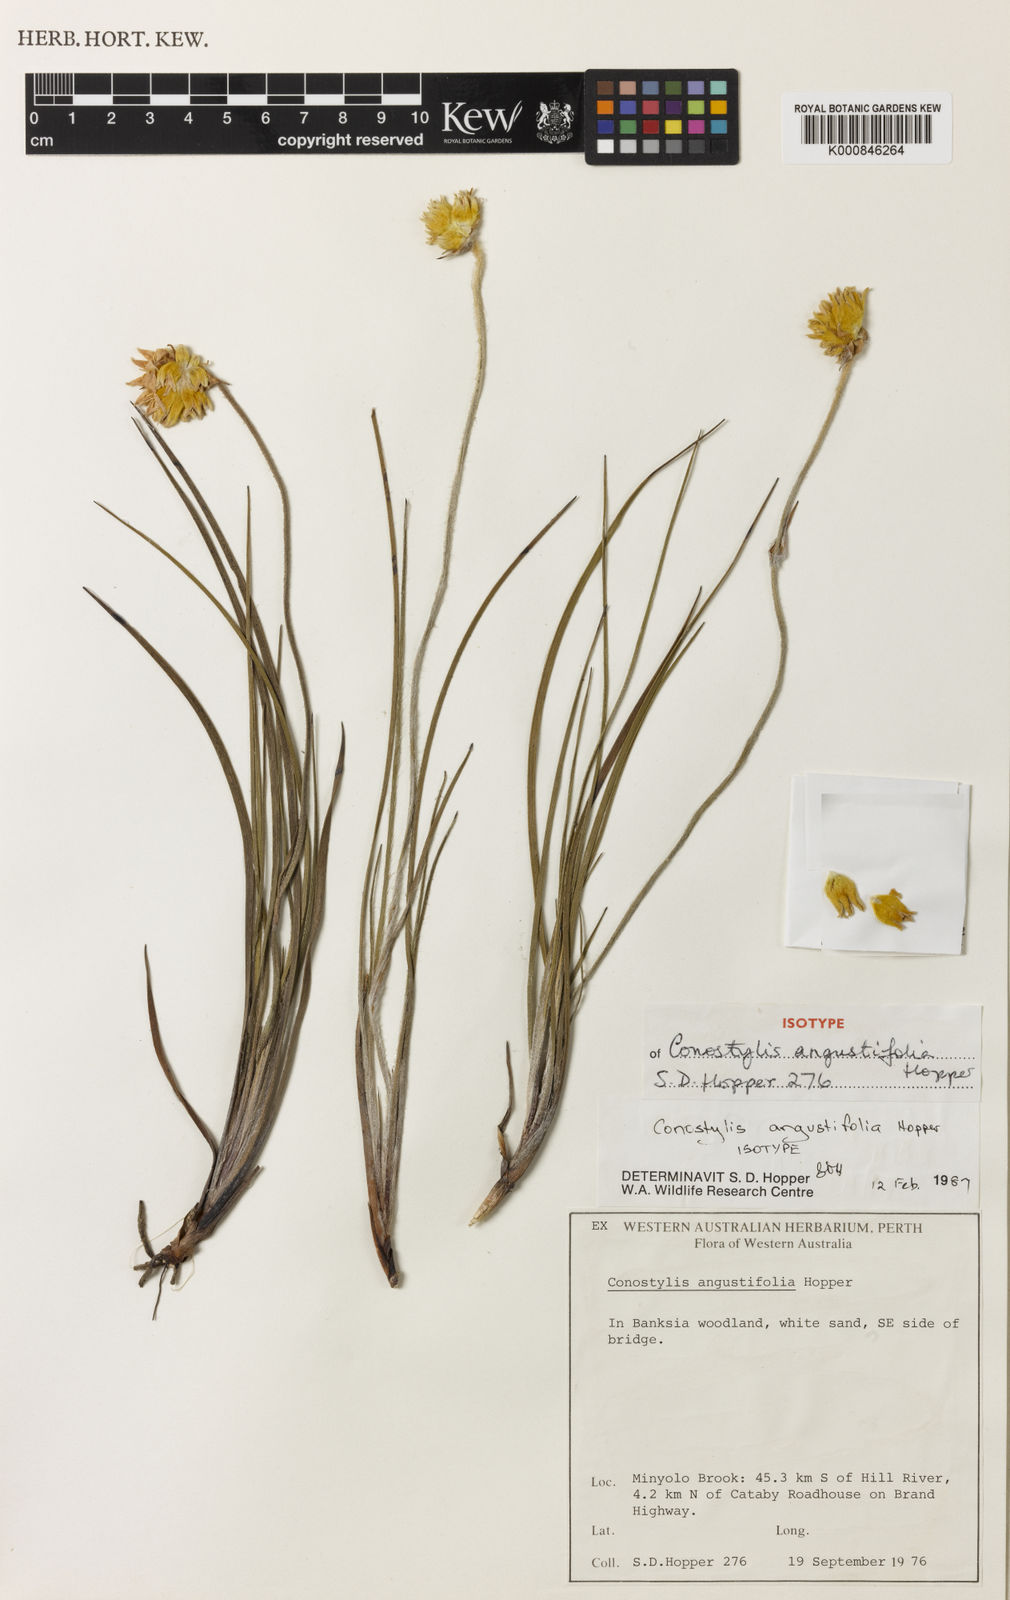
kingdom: Plantae
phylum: Tracheophyta
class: Liliopsida
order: Commelinales
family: Haemodoraceae
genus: Conostylis
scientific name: Conostylis angustifolia
